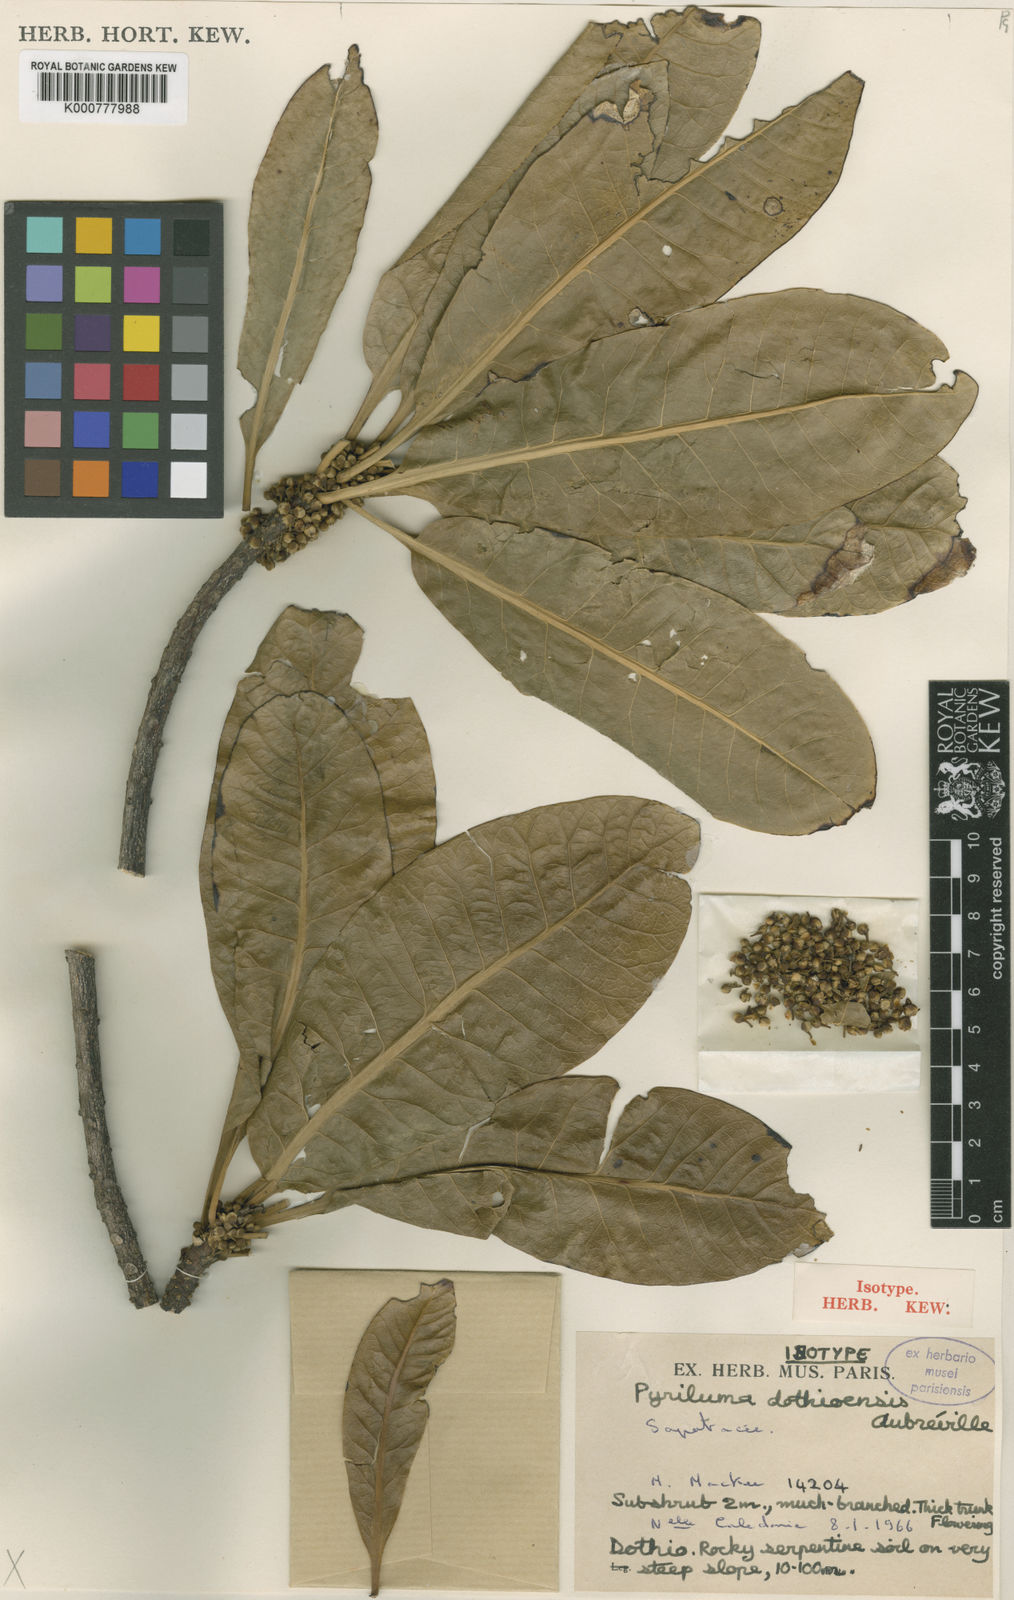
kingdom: Plantae
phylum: Tracheophyta
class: Magnoliopsida
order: Ericales
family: Sapotaceae
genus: Pouteria
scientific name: Pouteria
